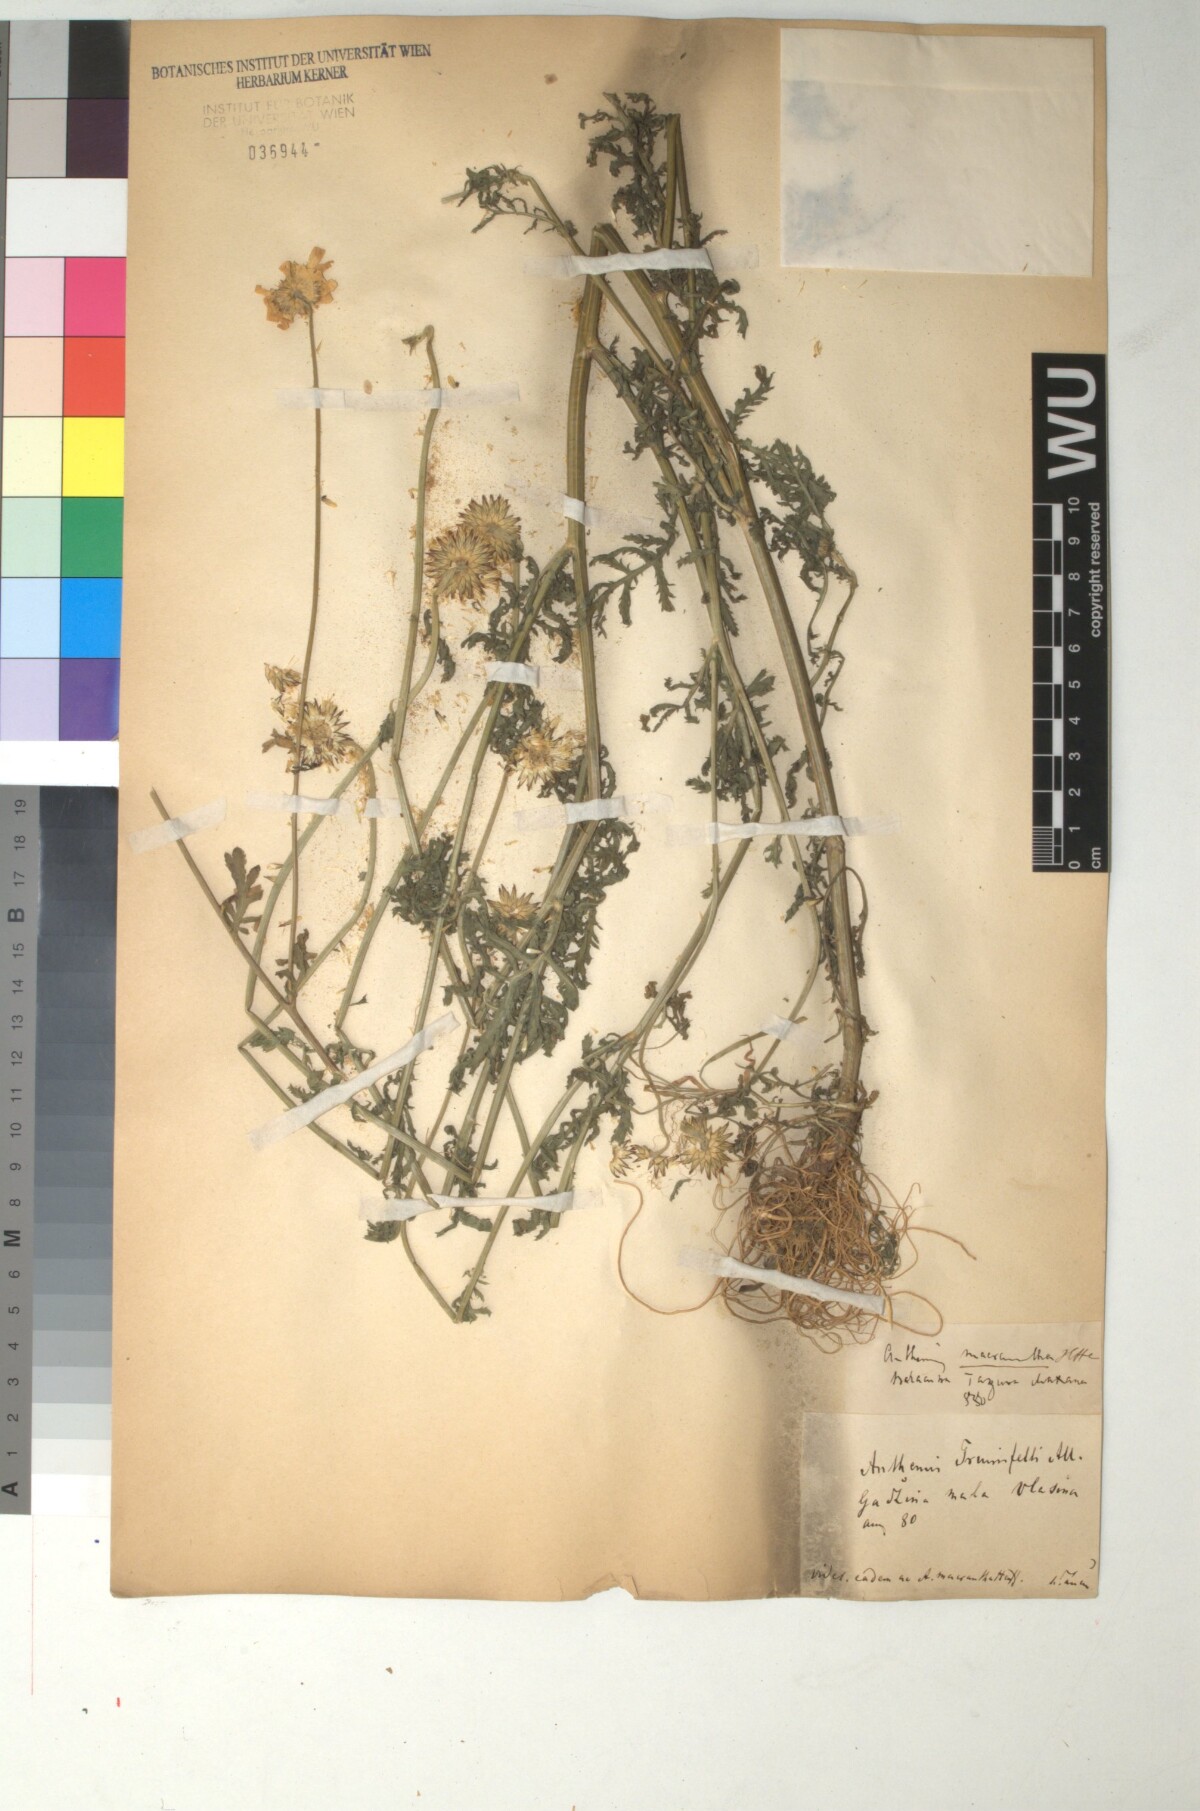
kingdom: Plantae
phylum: Tracheophyta
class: Magnoliopsida
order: Asterales
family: Asteraceae
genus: Cota
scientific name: Cota triumfetti
